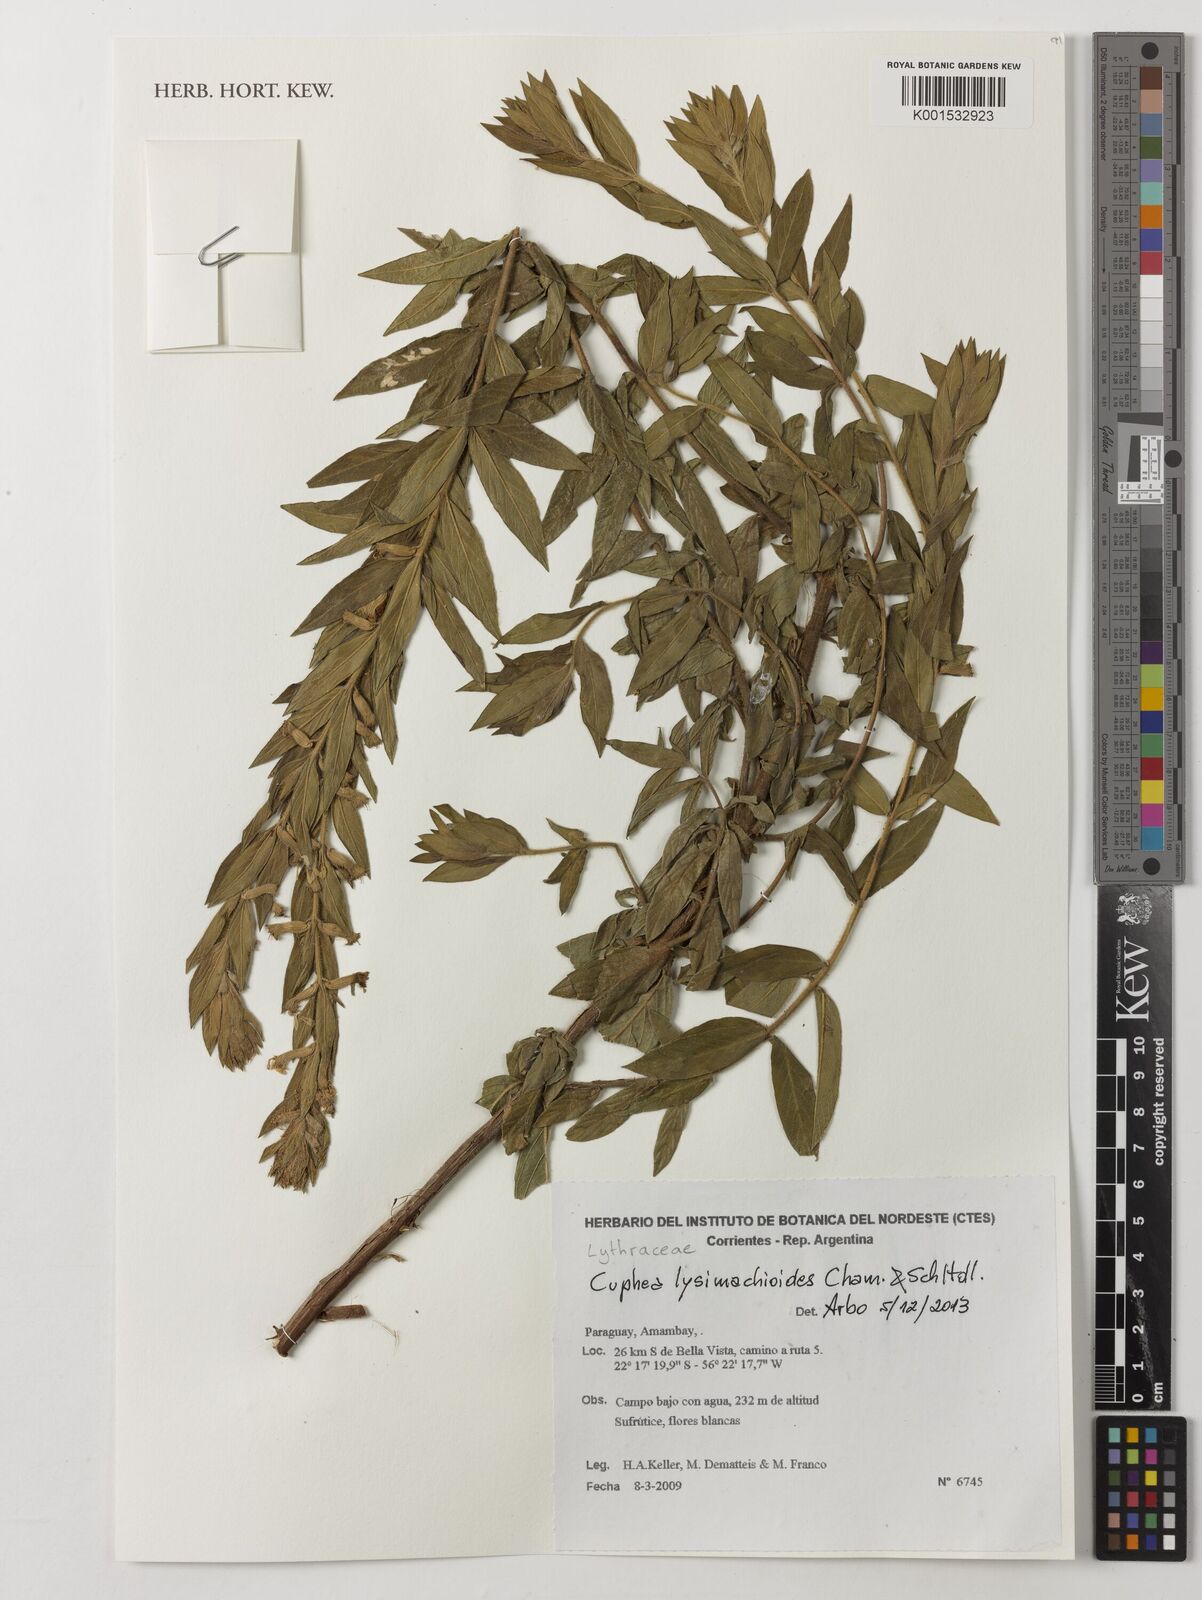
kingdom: Plantae
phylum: Tracheophyta
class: Magnoliopsida
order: Myrtales
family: Lythraceae
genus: Cuphea
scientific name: Cuphea lysimachioides
